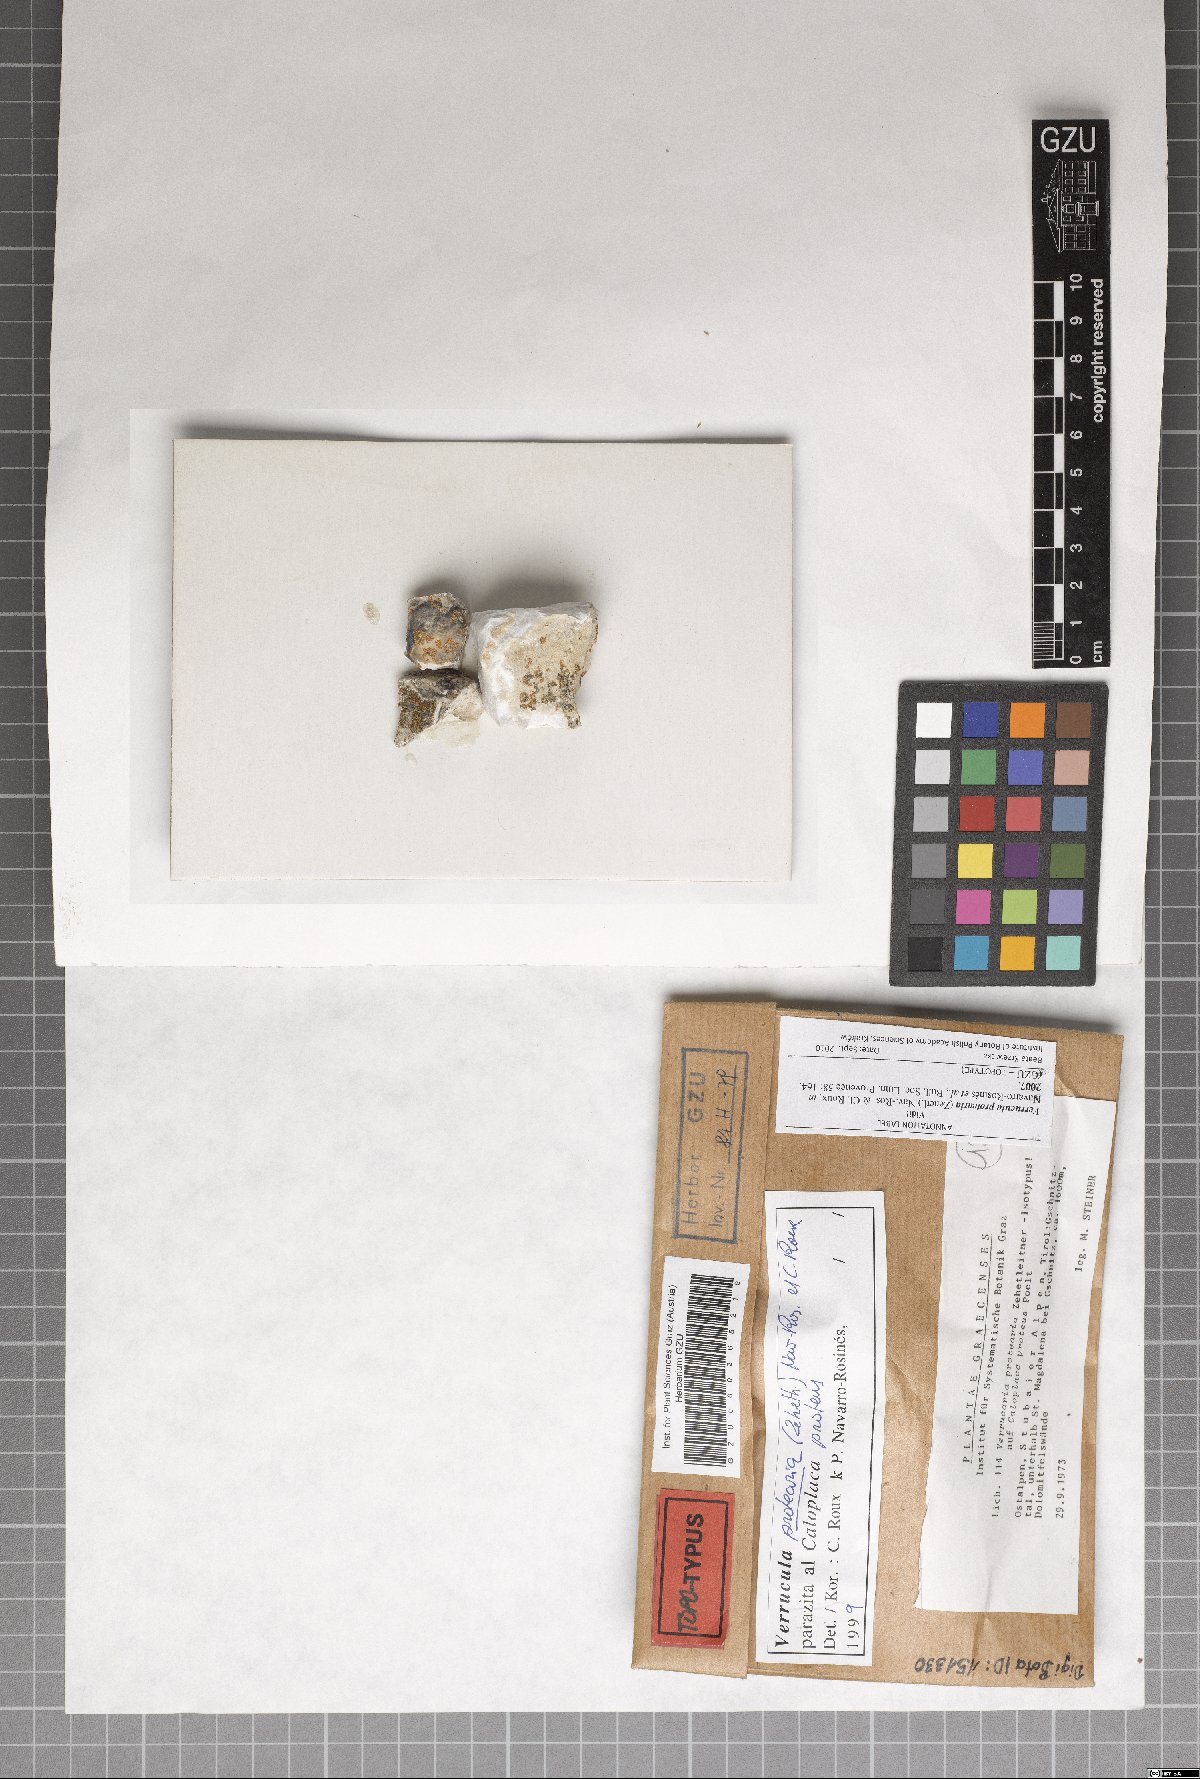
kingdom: Fungi
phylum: Ascomycota
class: Eurotiomycetes
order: Verrucariales
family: Verrucariaceae
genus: Verrucula
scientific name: Verrucula protearia
